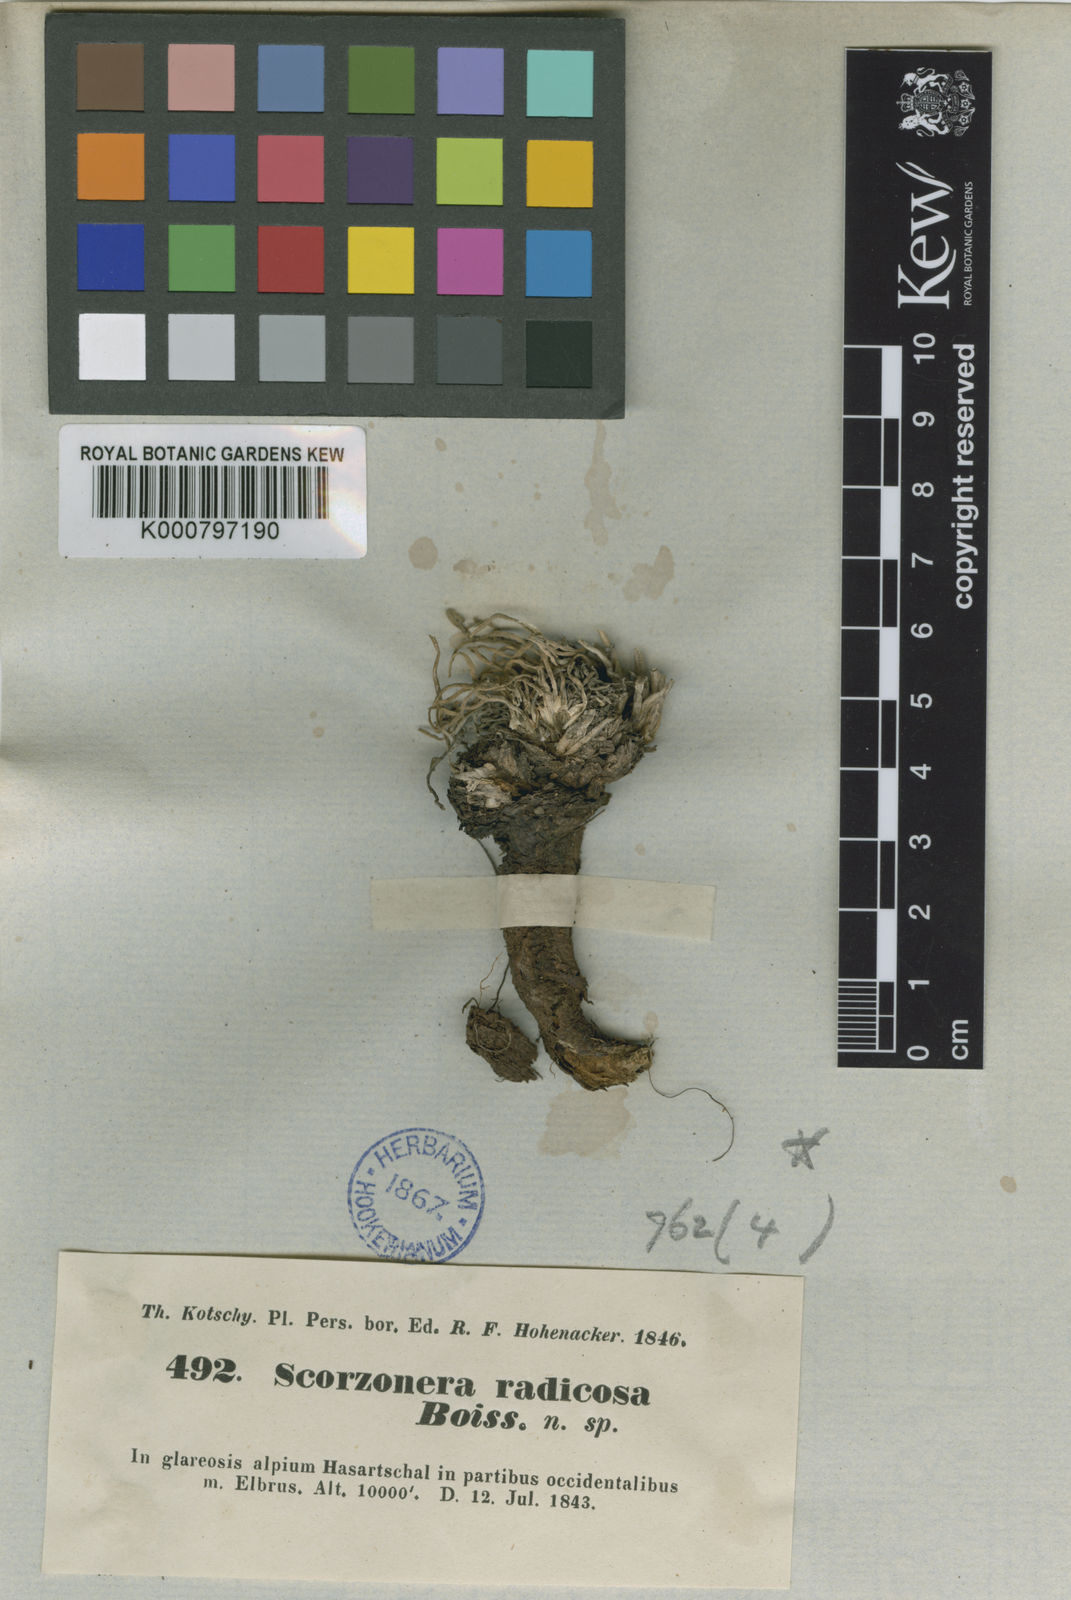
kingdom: Plantae
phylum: Tracheophyta
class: Magnoliopsida
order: Asterales
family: Asteraceae
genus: Scorzonera
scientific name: Scorzonera radicosa
